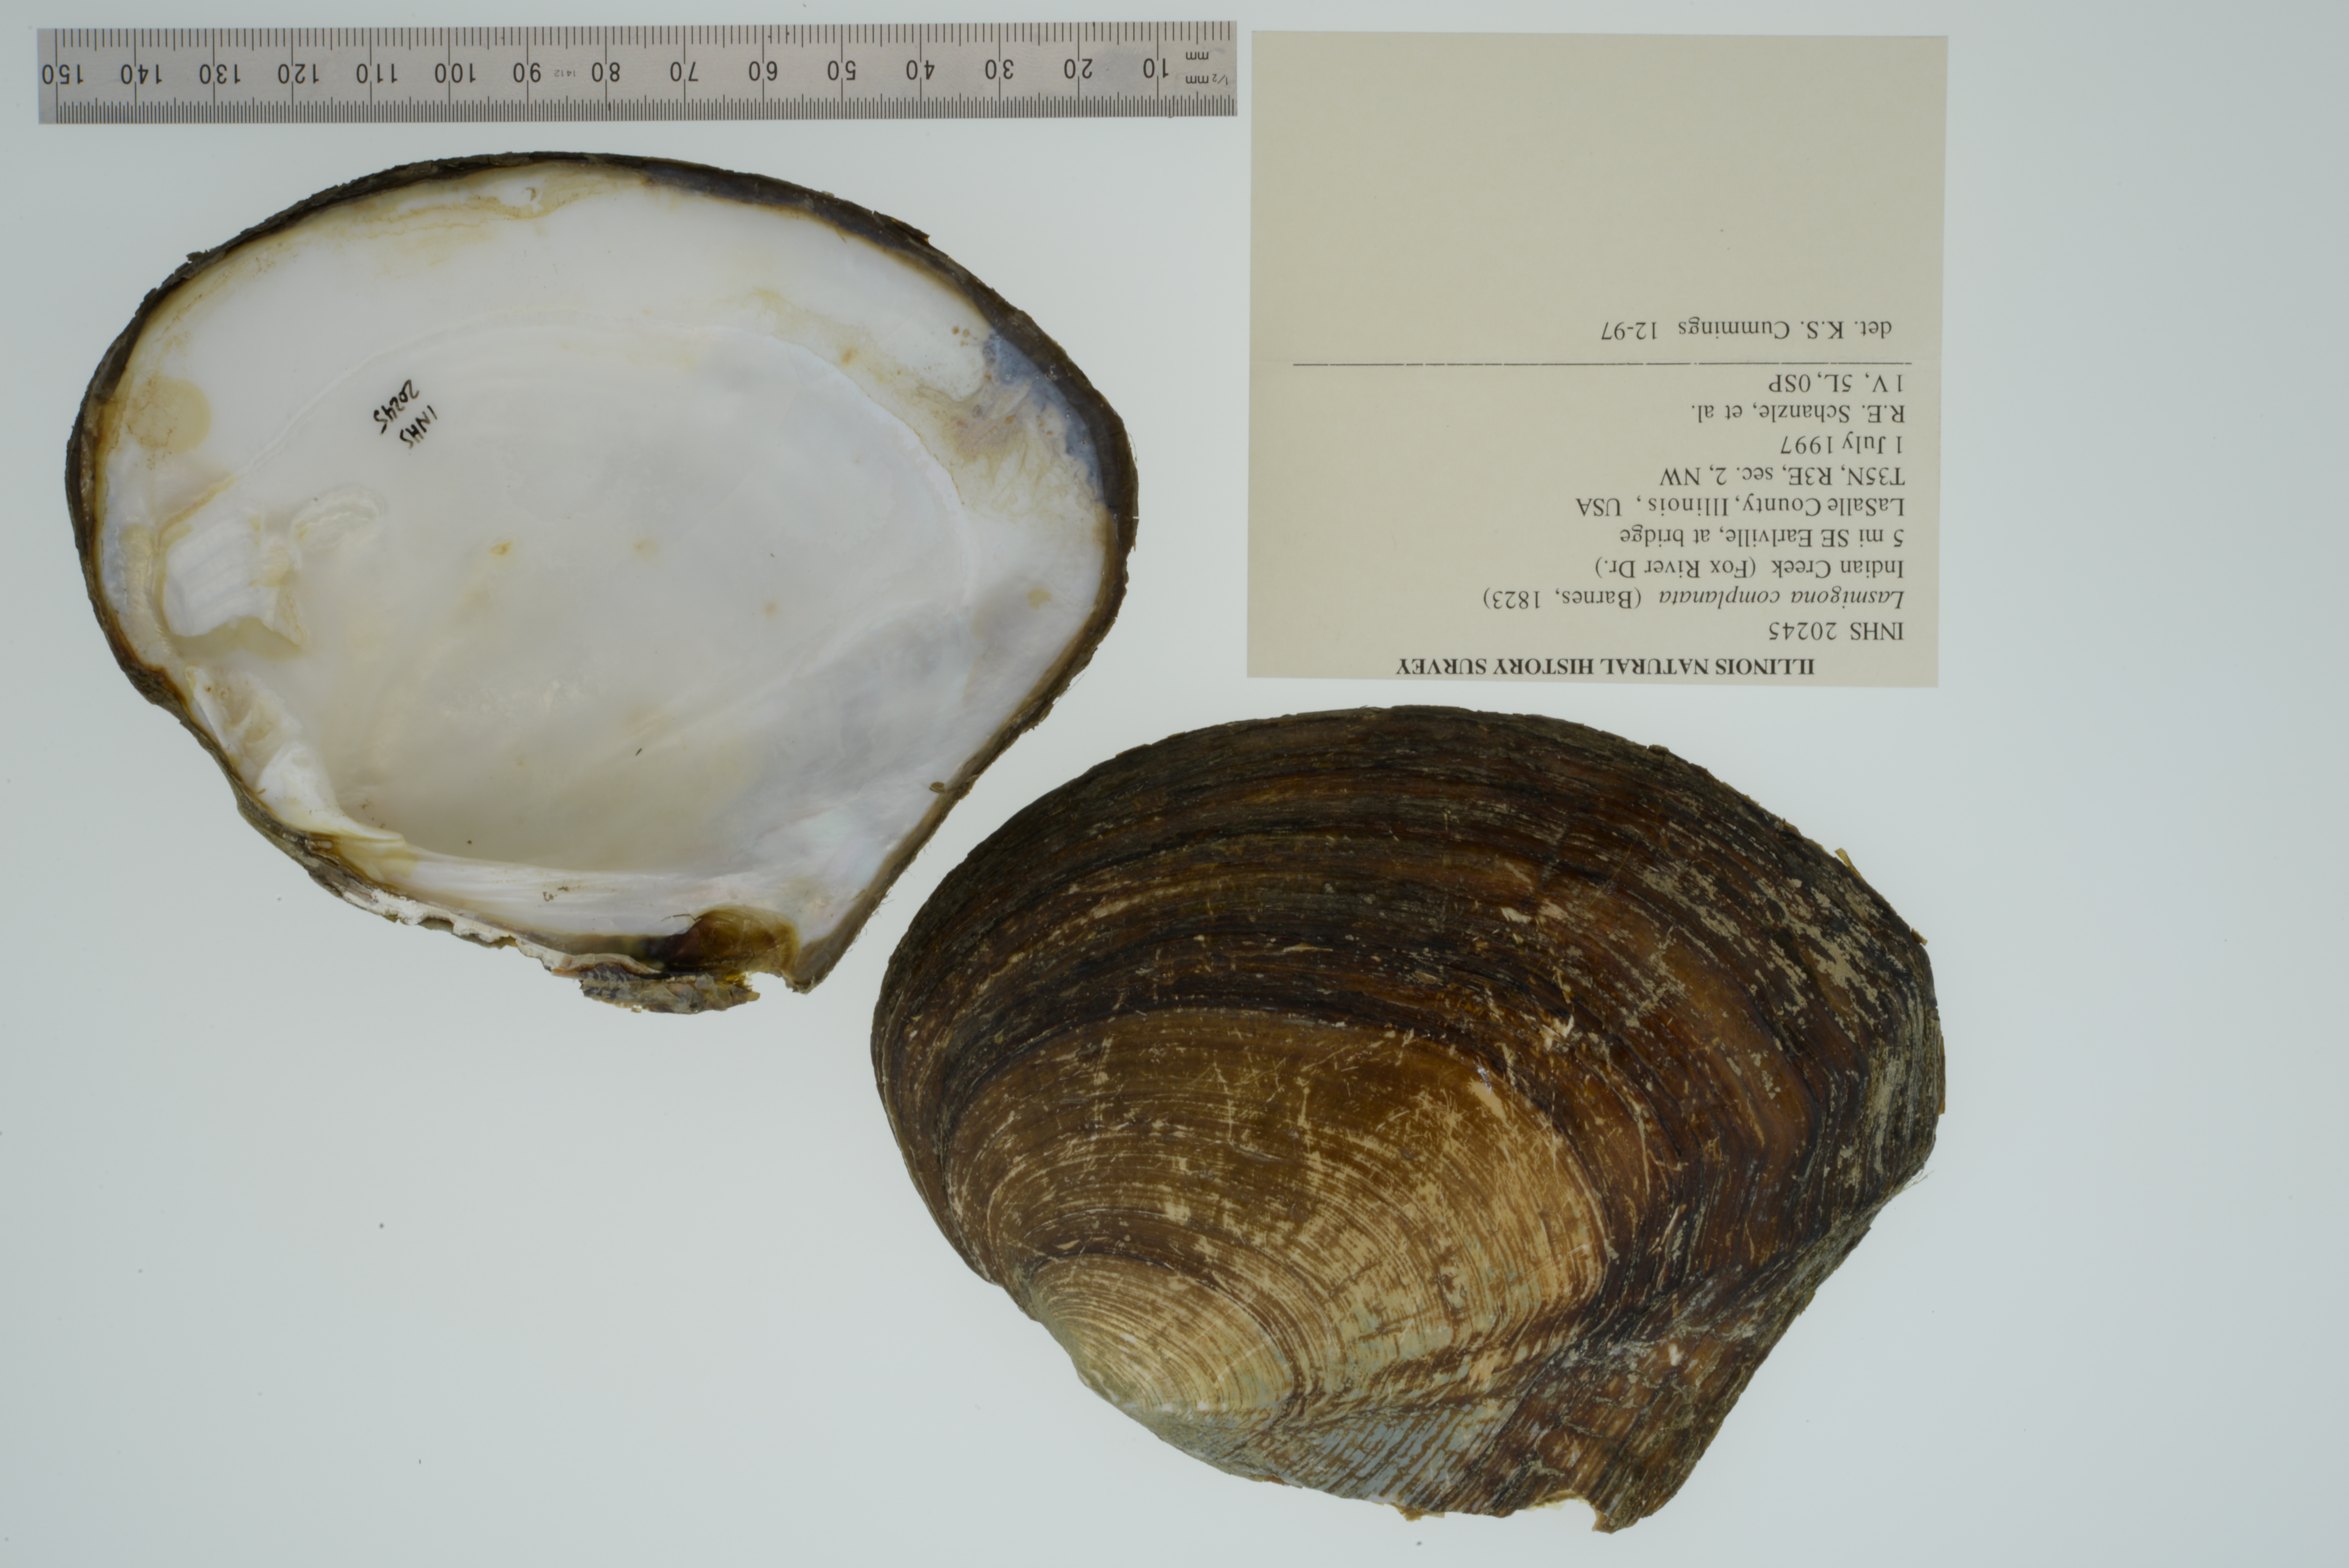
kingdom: Animalia
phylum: Mollusca
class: Bivalvia
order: Unionida
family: Unionidae
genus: Lasmigona
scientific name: Lasmigona complanata
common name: White heelsplitter
